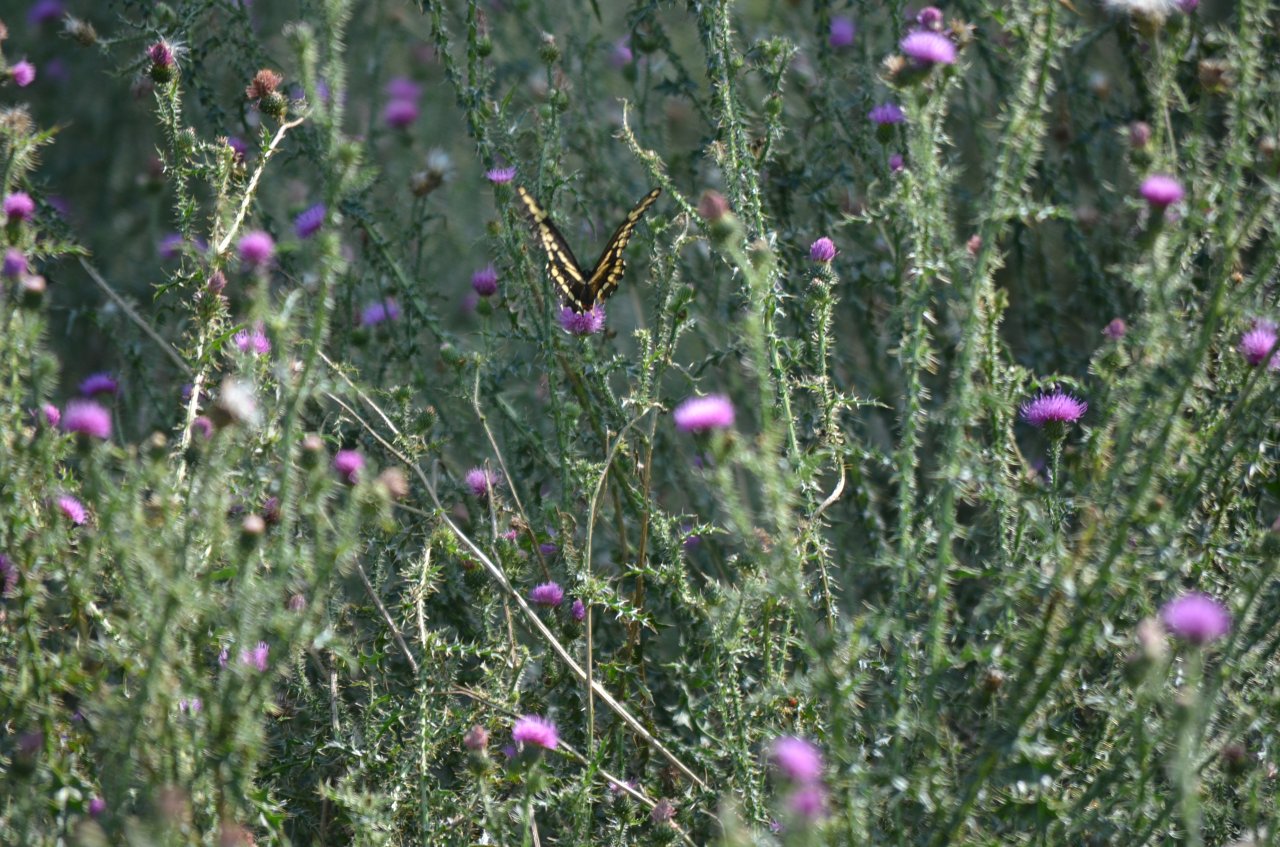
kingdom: Animalia
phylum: Arthropoda
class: Insecta
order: Lepidoptera
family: Papilionidae
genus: Papilio
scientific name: Papilio cresphontes
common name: Eastern Giant Swallowtail
